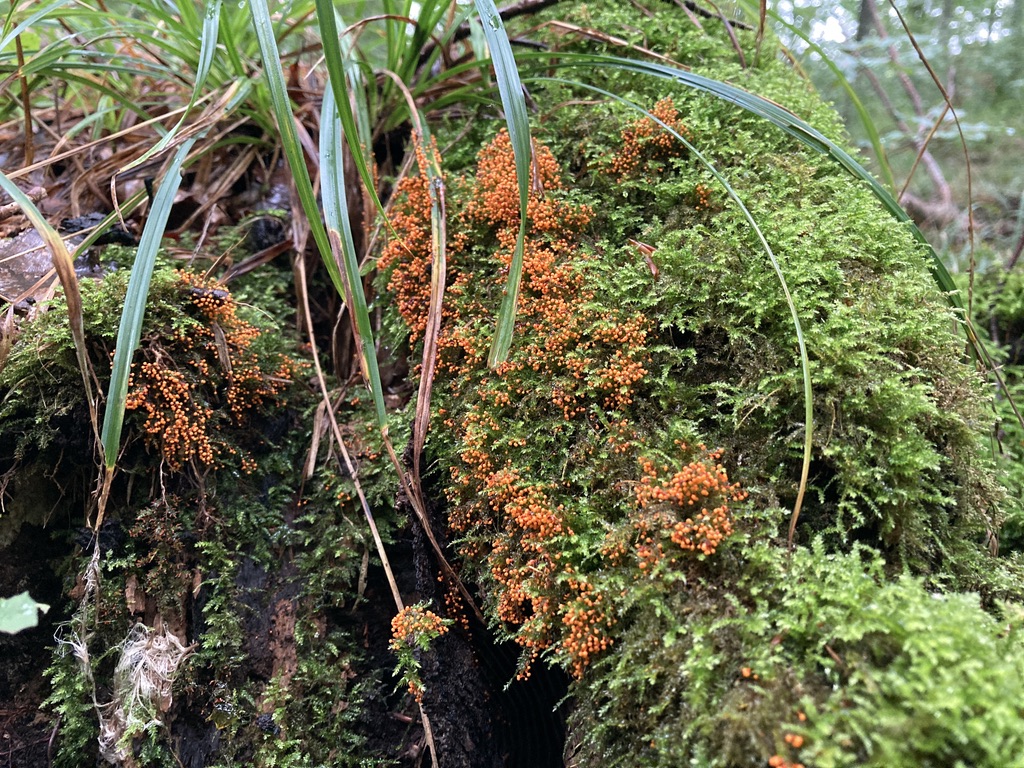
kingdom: Protozoa
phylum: Mycetozoa
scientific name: Mycetozoa
